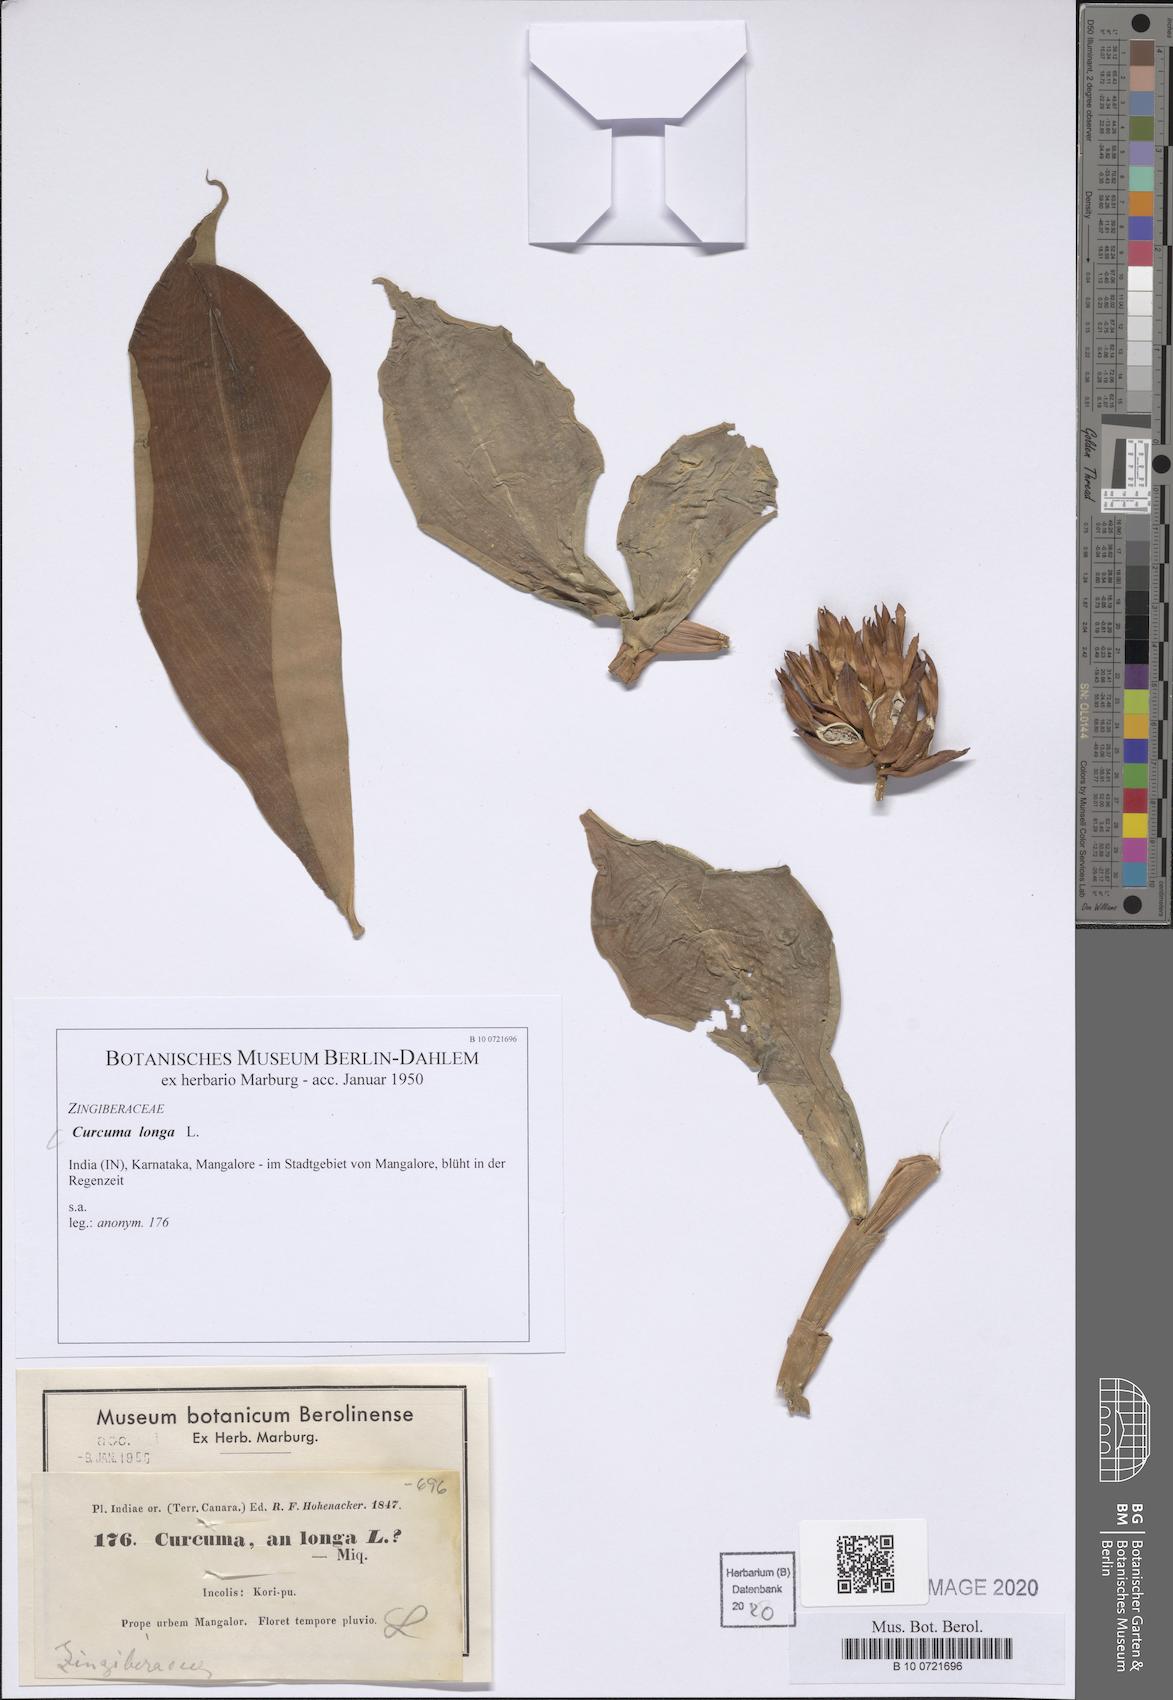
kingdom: Plantae
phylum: Tracheophyta
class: Liliopsida
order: Zingiberales
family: Zingiberaceae
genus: Curcuma
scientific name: Curcuma longa
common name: Turmeric
